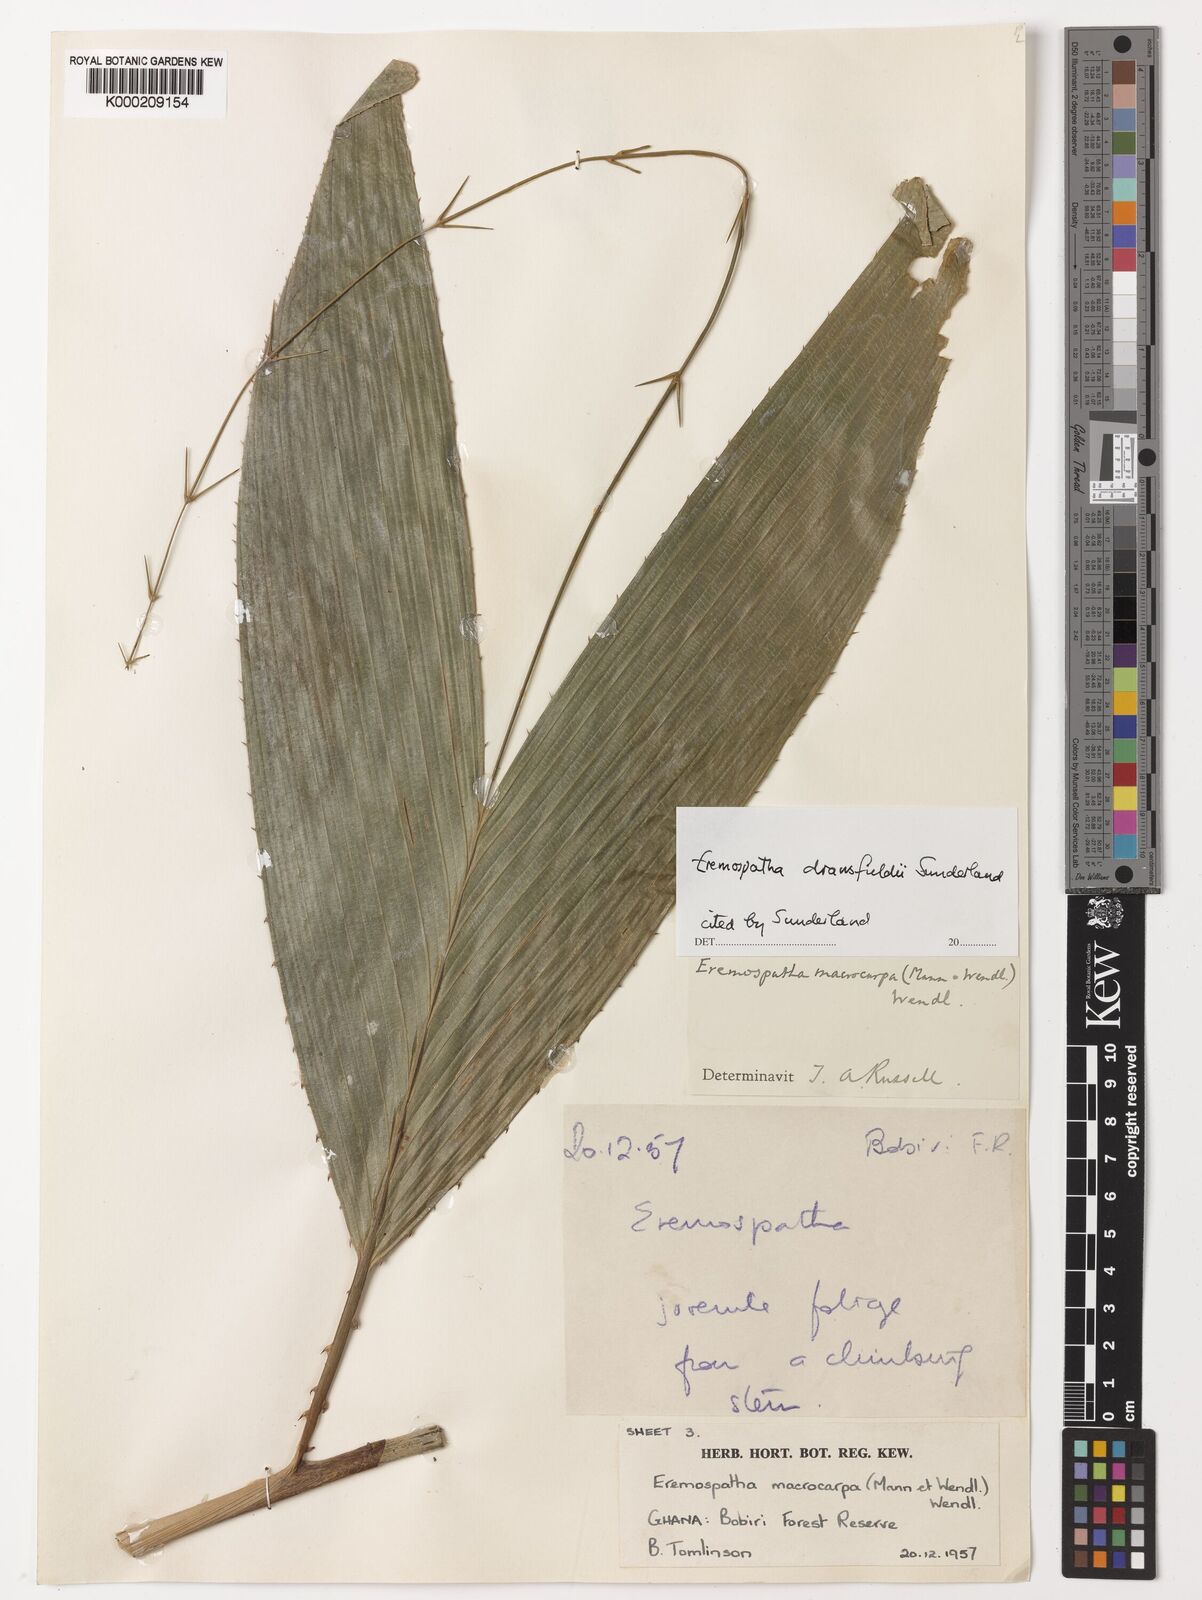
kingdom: Plantae
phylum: Tracheophyta
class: Liliopsida
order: Arecales
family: Arecaceae
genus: Eremospatha
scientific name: Eremospatha dransfieldii
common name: Rattan
